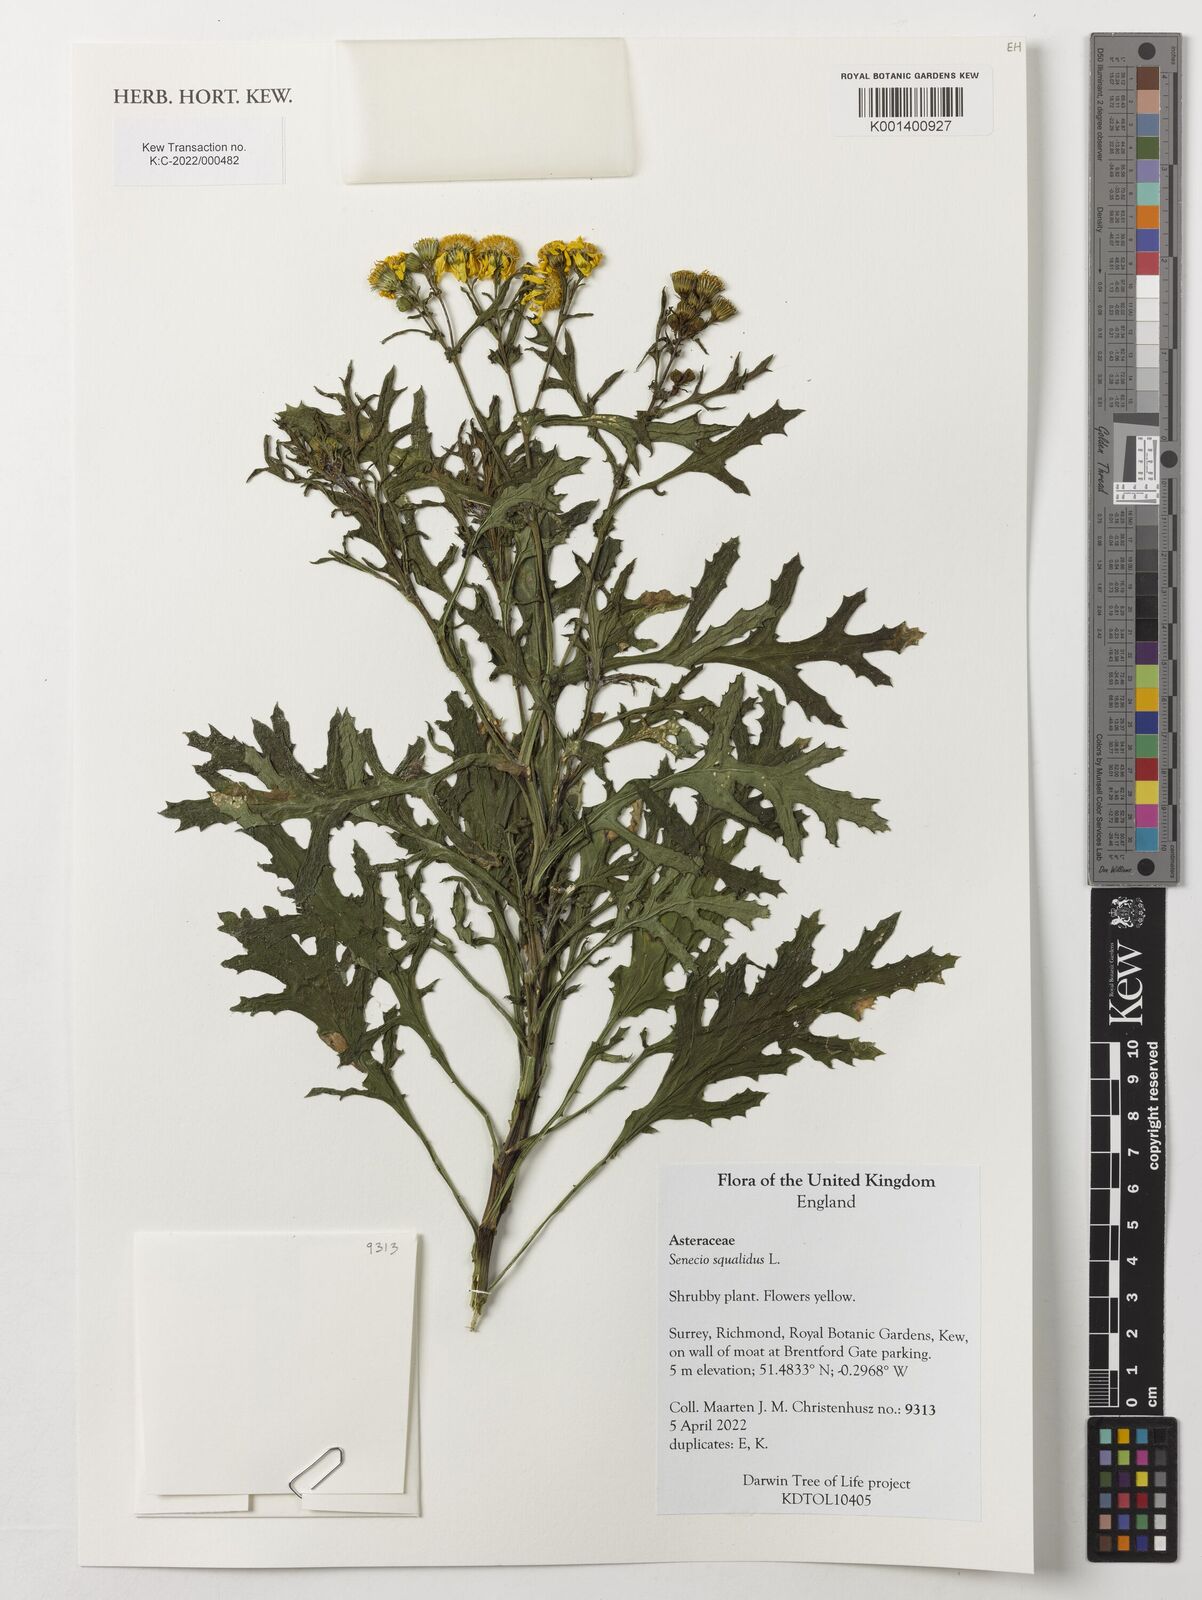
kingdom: Plantae
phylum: Tracheophyta
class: Magnoliopsida
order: Asterales
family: Asteraceae
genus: Senecio
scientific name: Senecio squalidus
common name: Oxford ragwort
